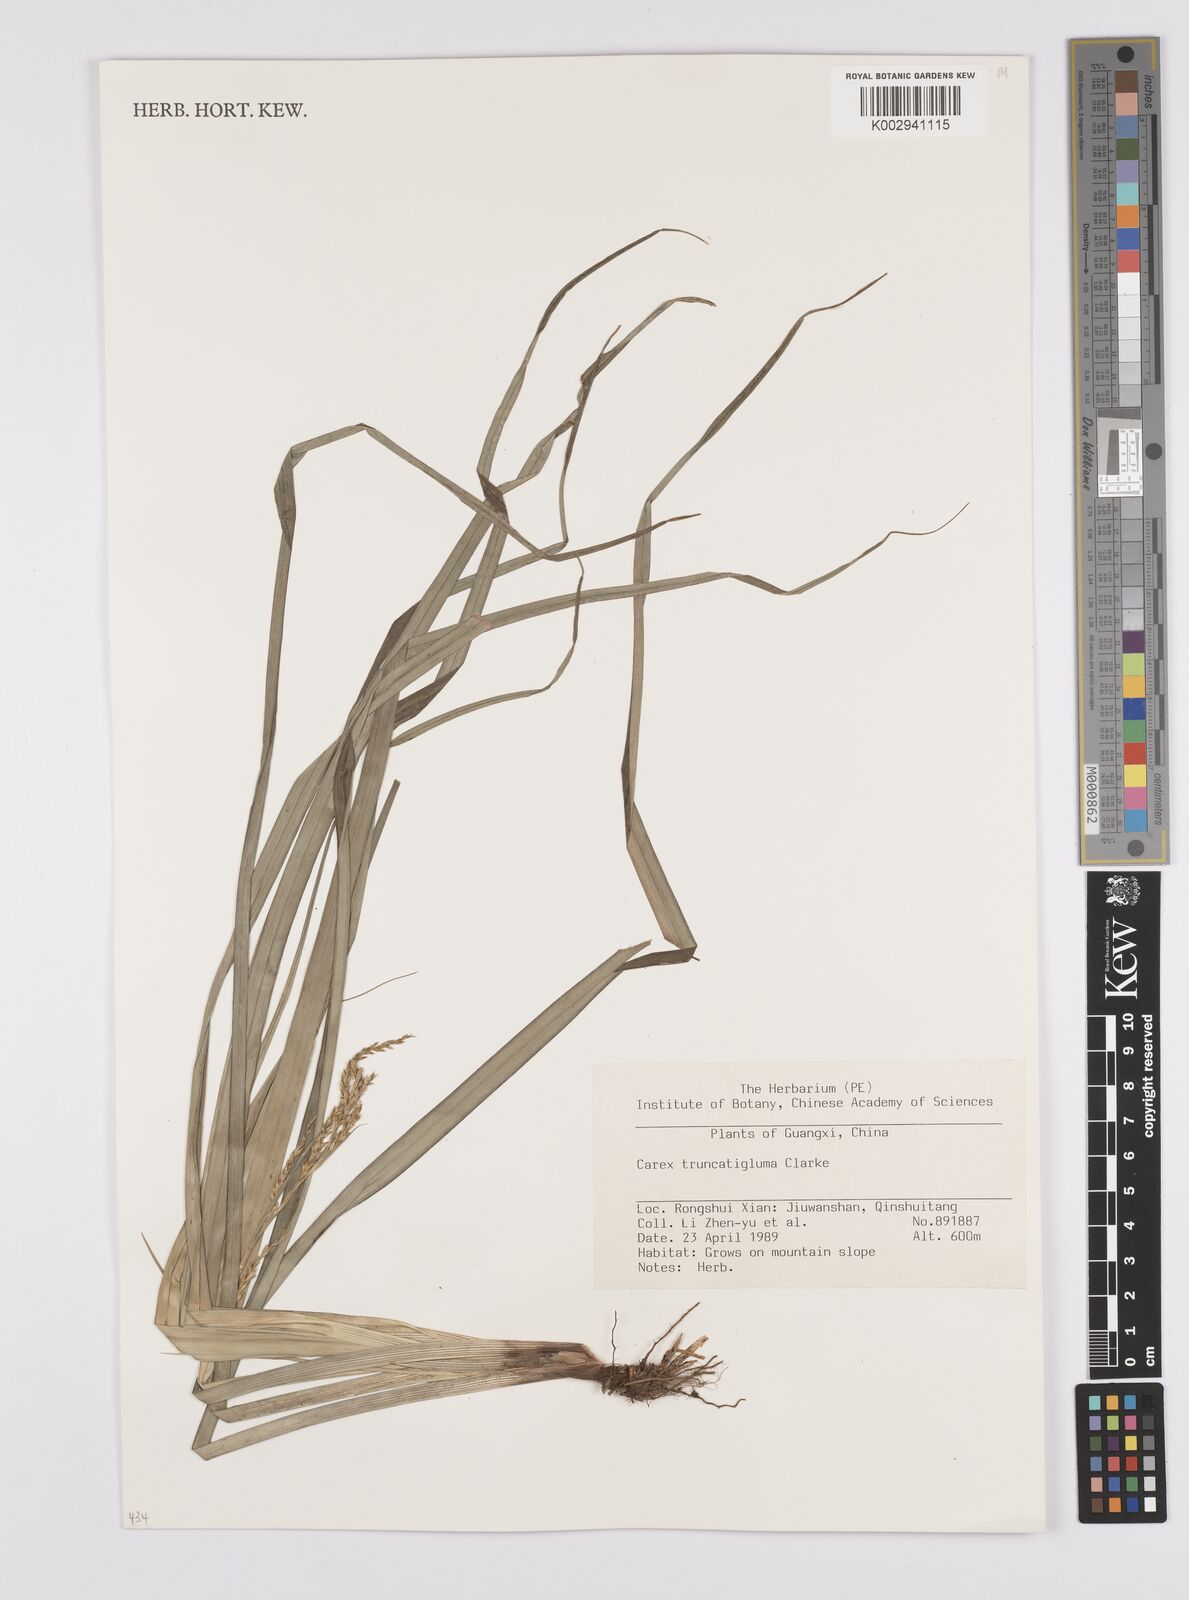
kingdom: Plantae
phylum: Tracheophyta
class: Liliopsida
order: Poales
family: Cyperaceae
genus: Carex
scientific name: Carex truncatigluma
